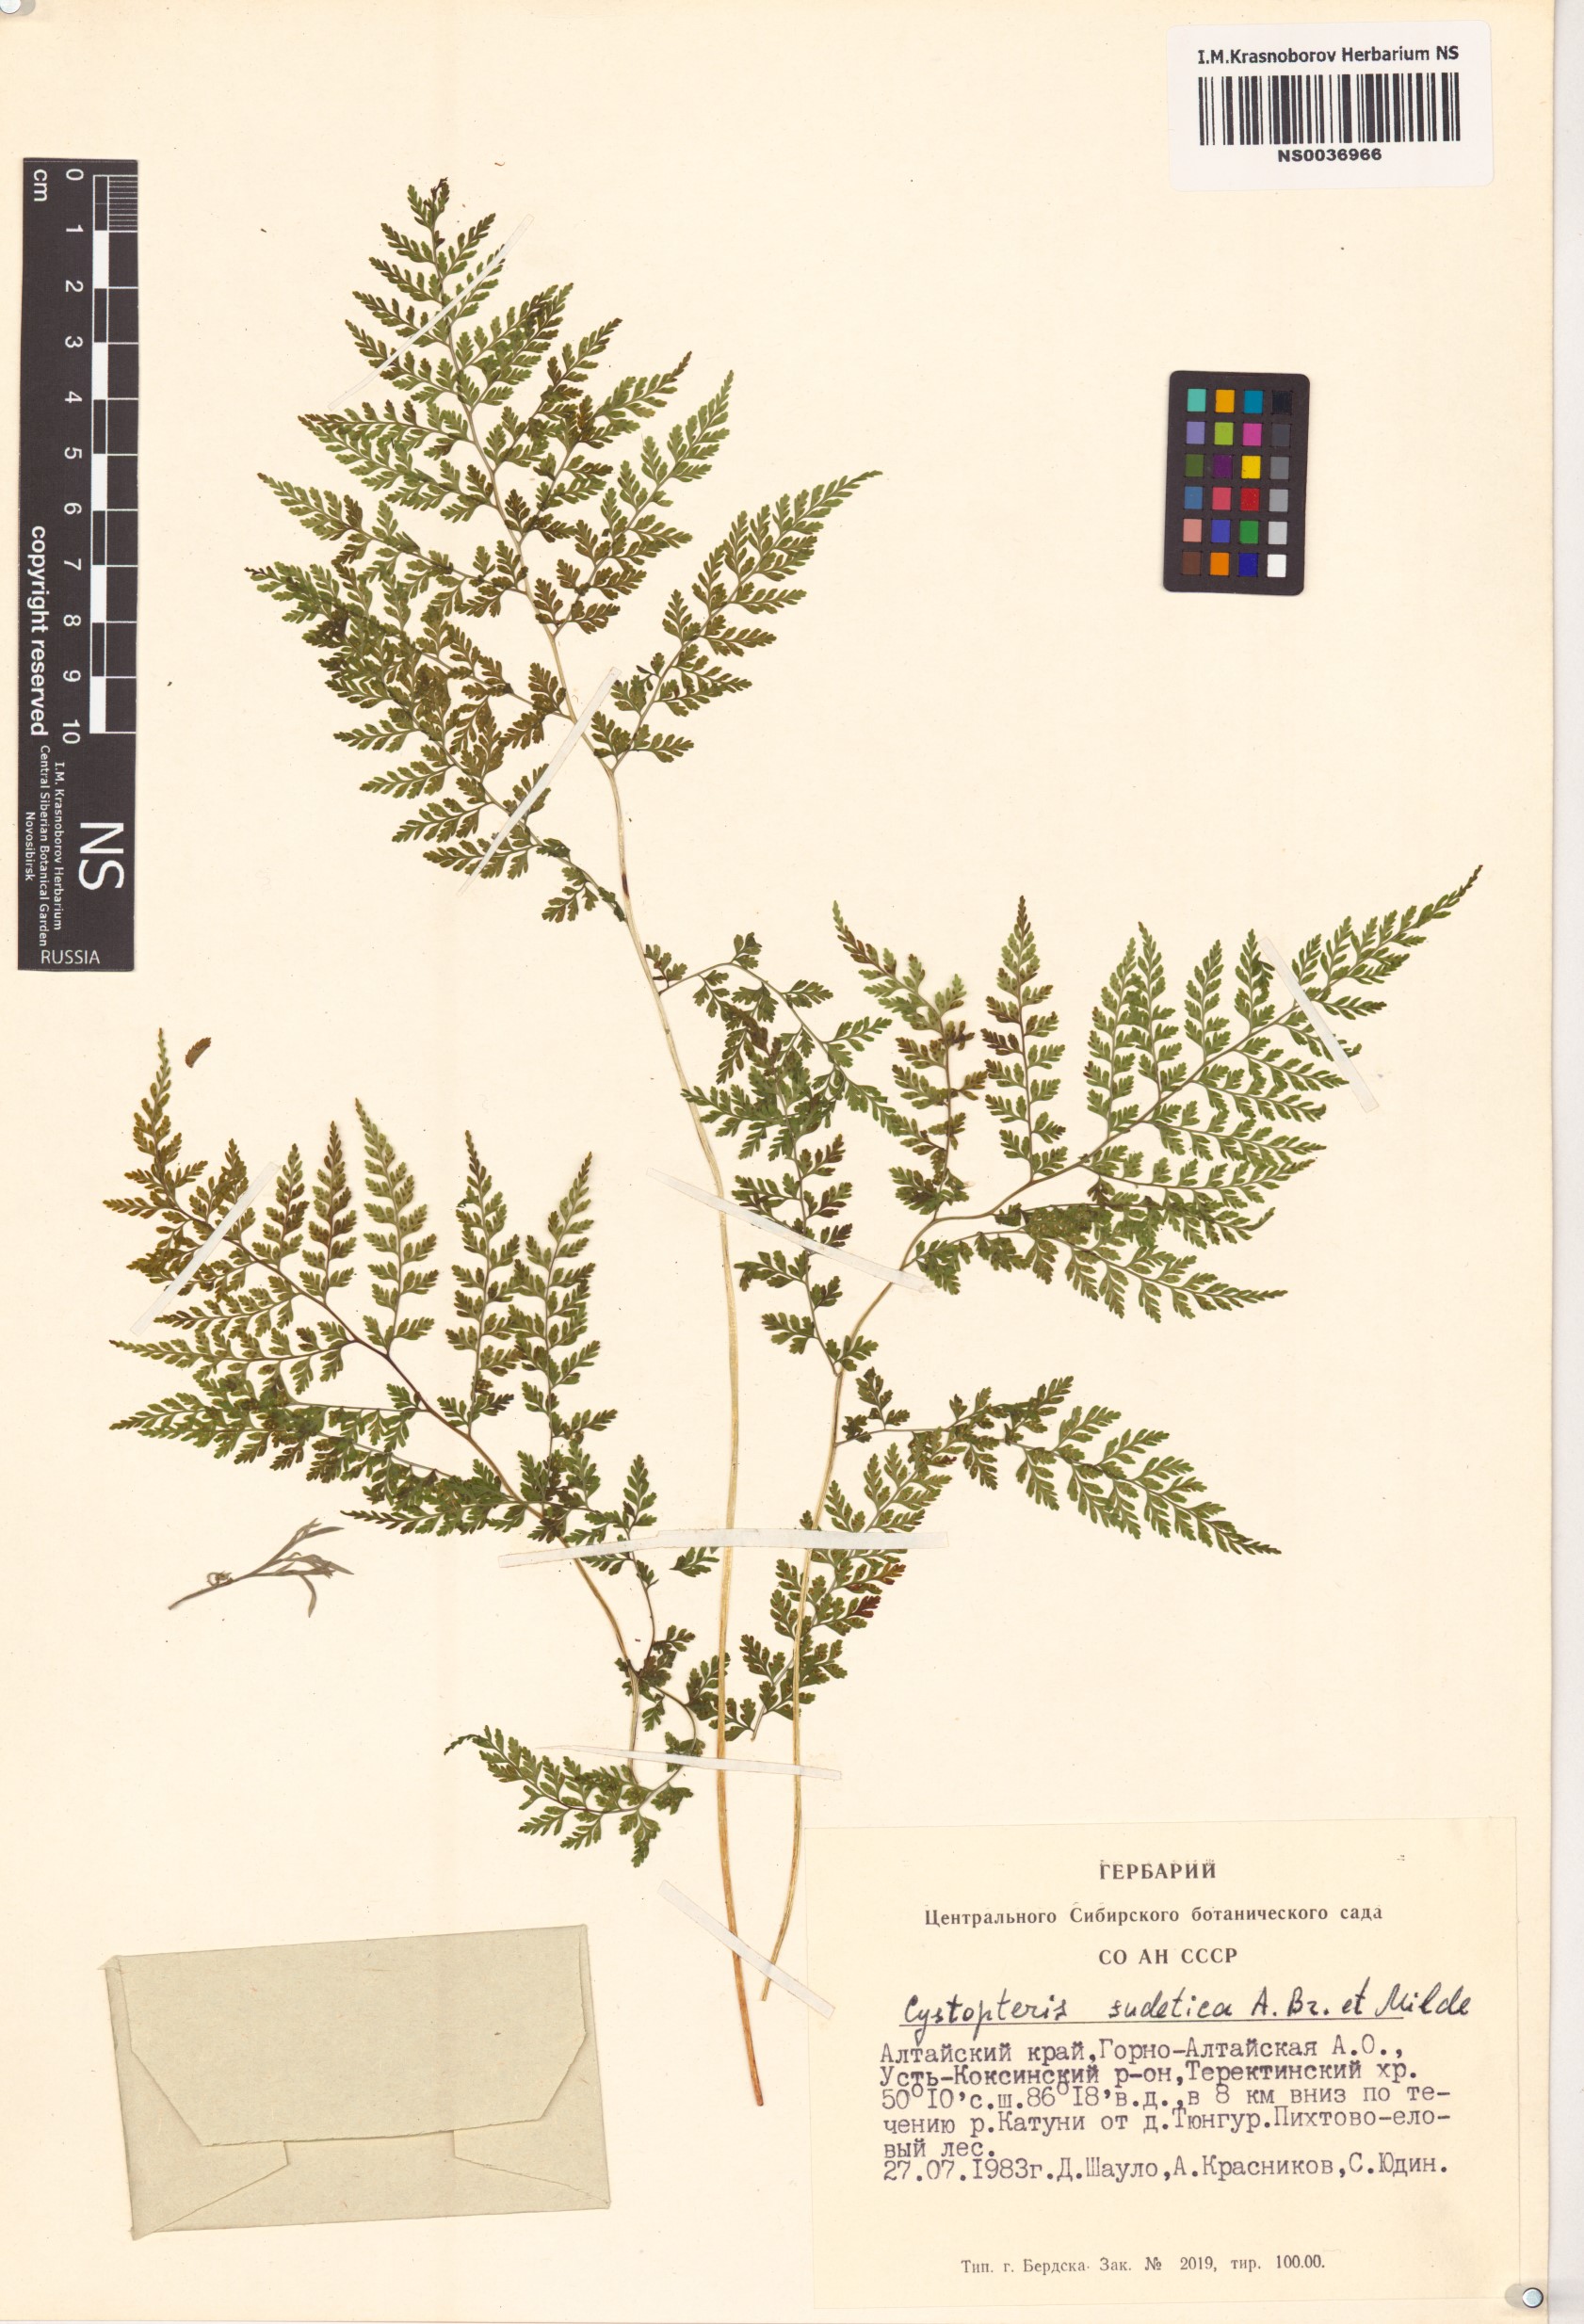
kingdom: Plantae
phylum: Tracheophyta
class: Polypodiopsida
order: Polypodiales
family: Cystopteridaceae
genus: Cystopteris
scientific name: Cystopteris montana
